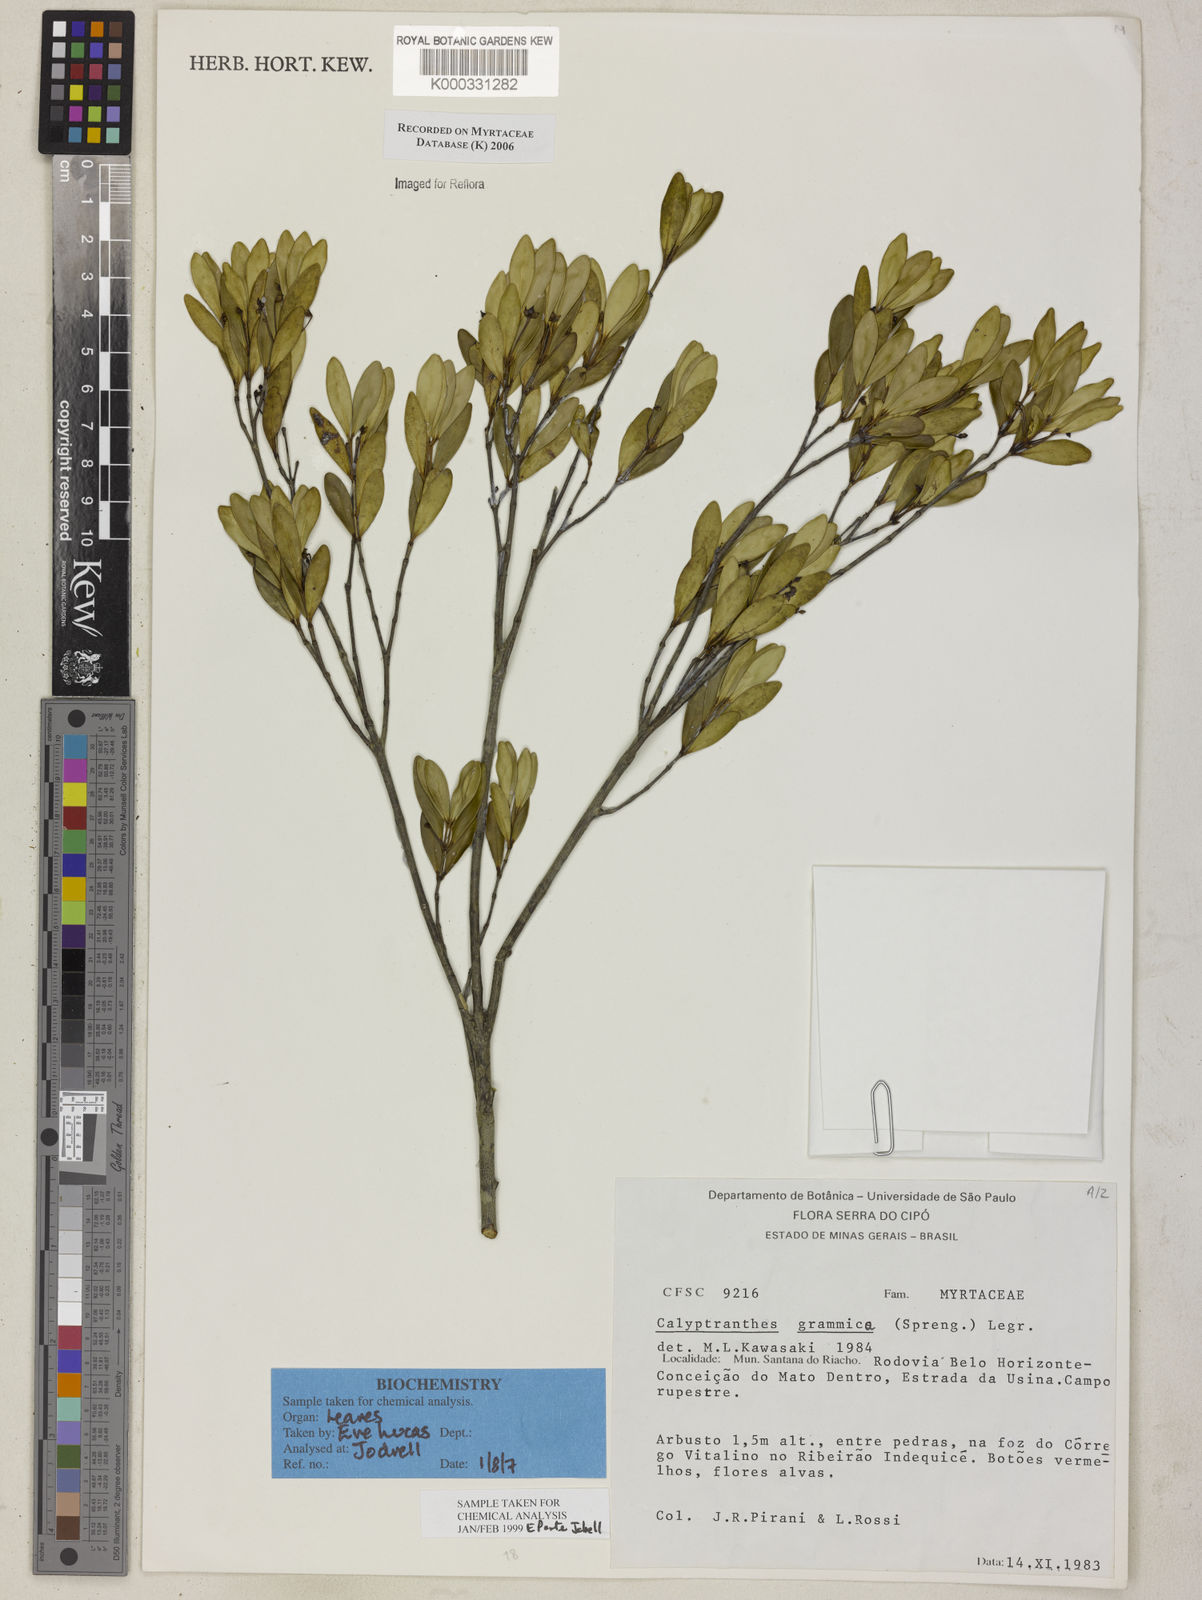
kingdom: Plantae
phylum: Tracheophyta
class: Magnoliopsida
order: Myrtales
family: Myrtaceae
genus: Myrcia
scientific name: Myrcia grammica
